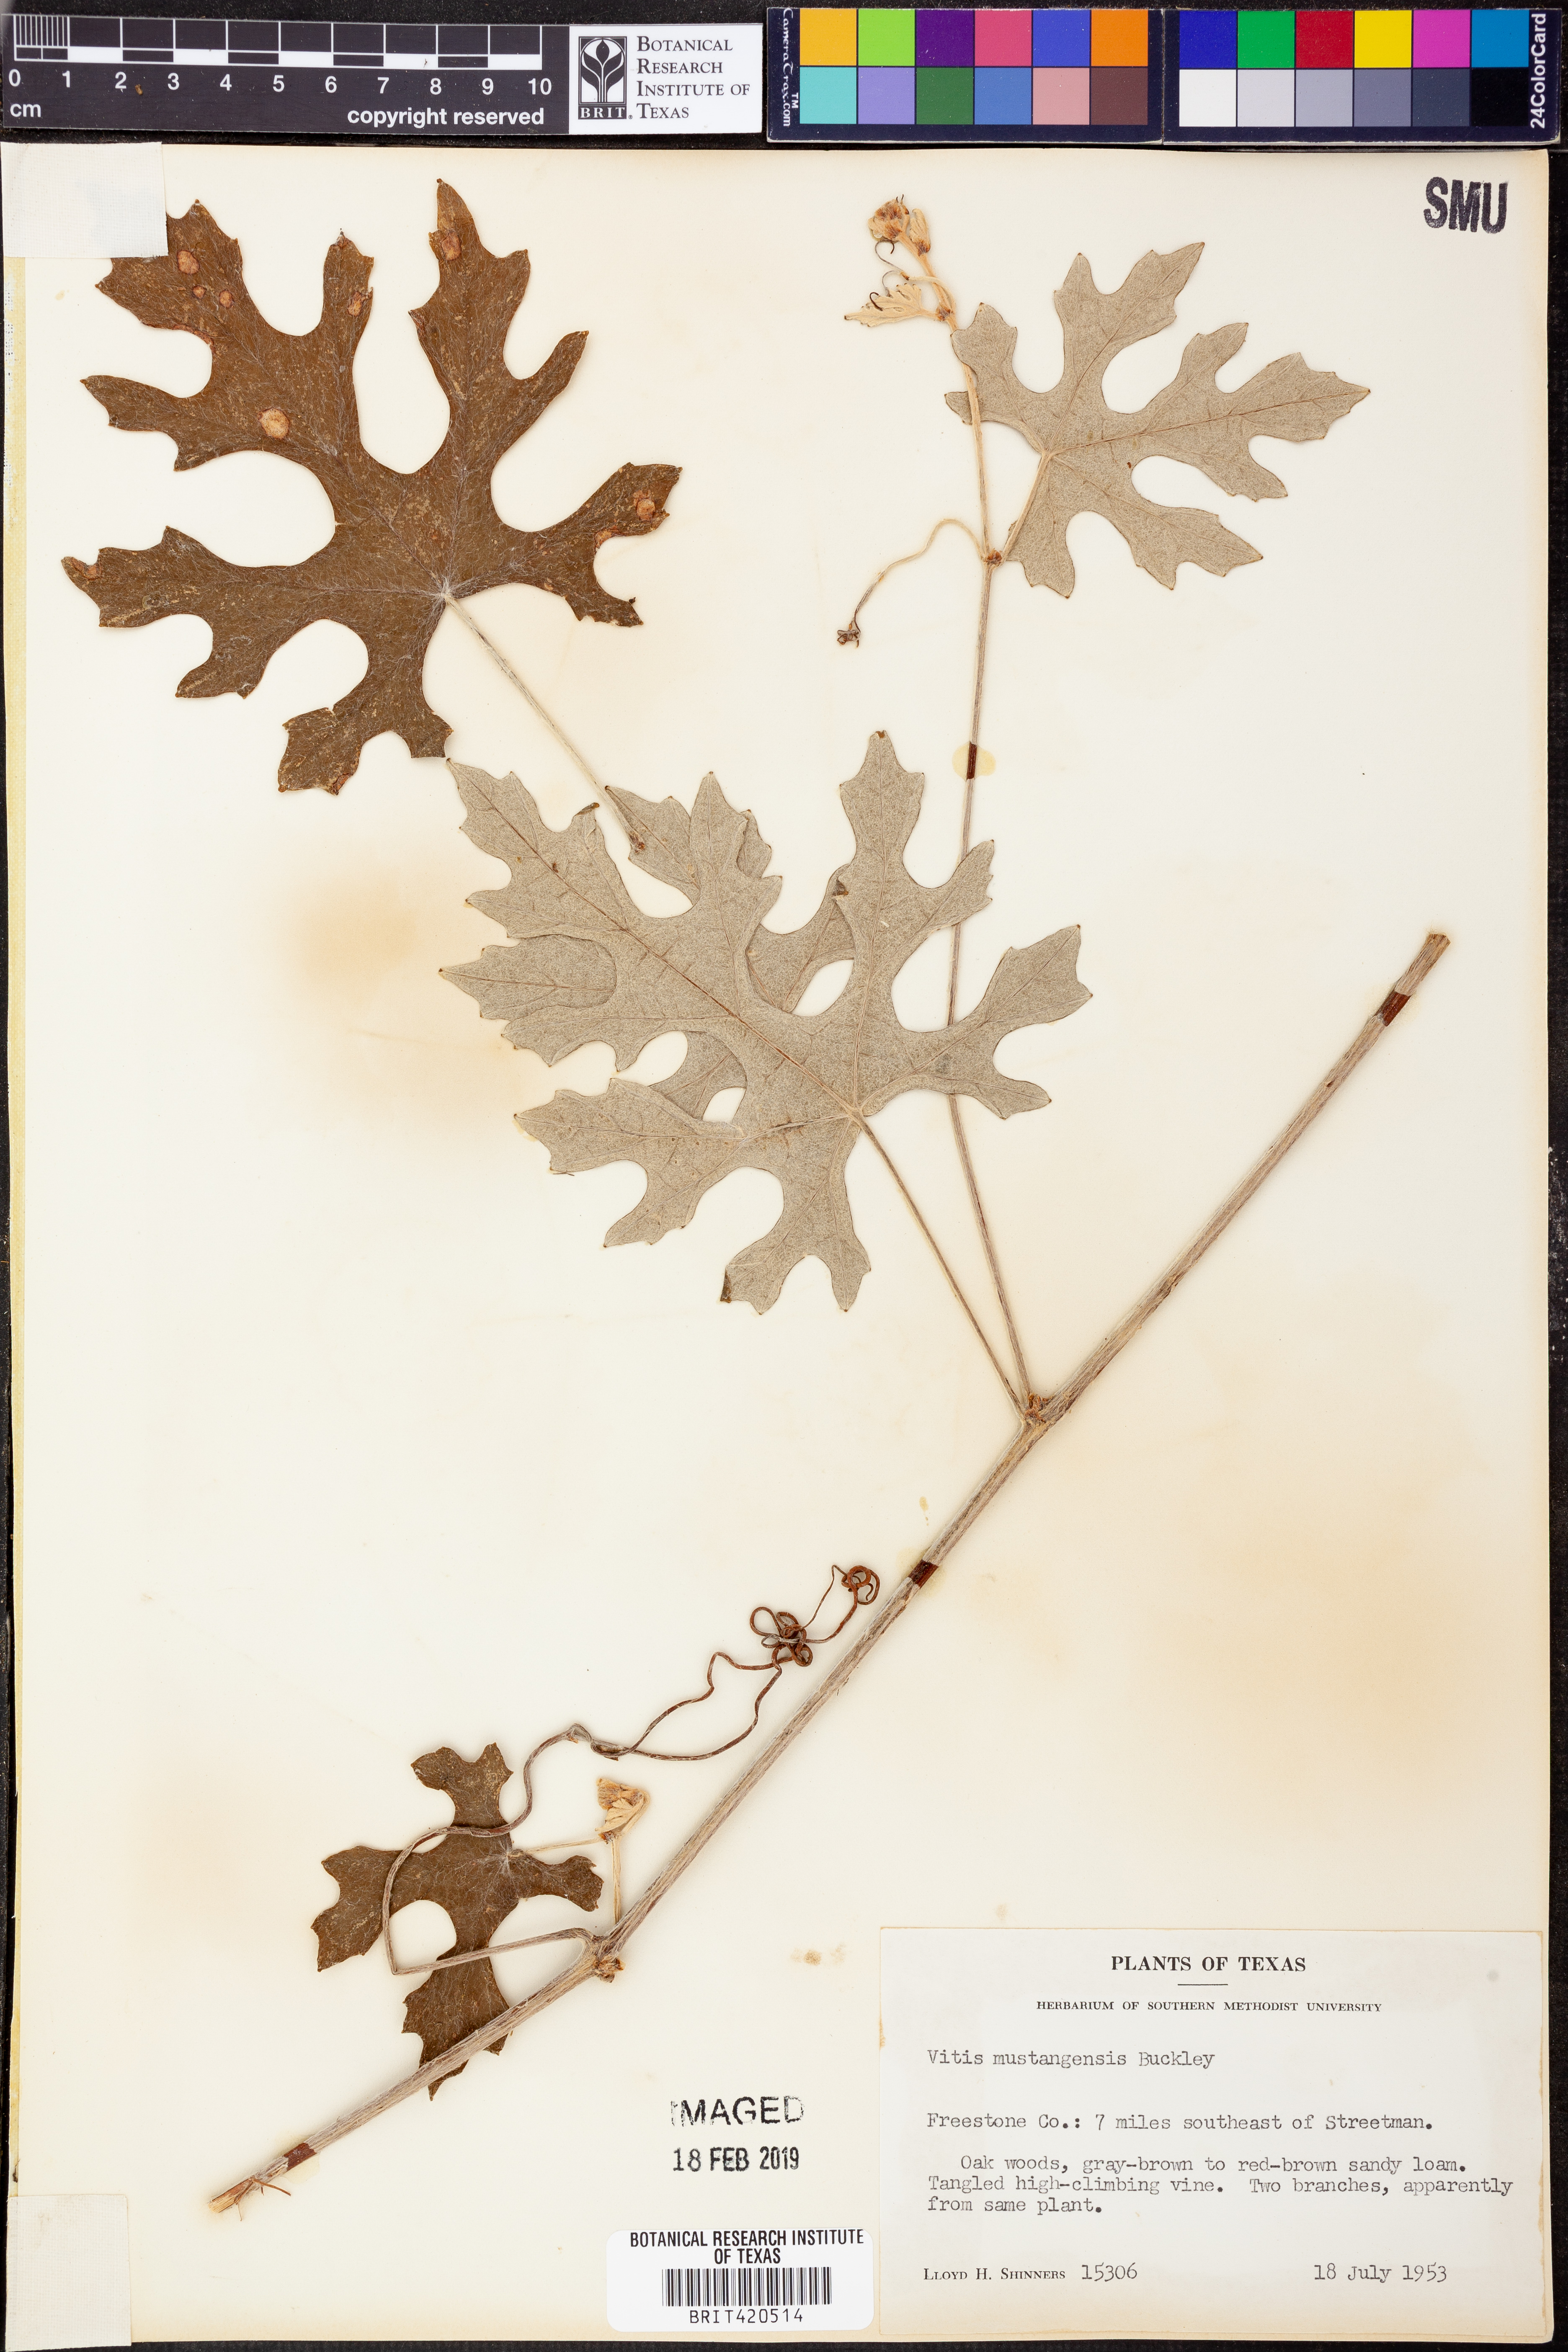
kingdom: Plantae
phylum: Tracheophyta
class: Magnoliopsida
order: Vitales
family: Vitaceae
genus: Vitis
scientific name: Vitis mustangensis
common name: Mustang grape
